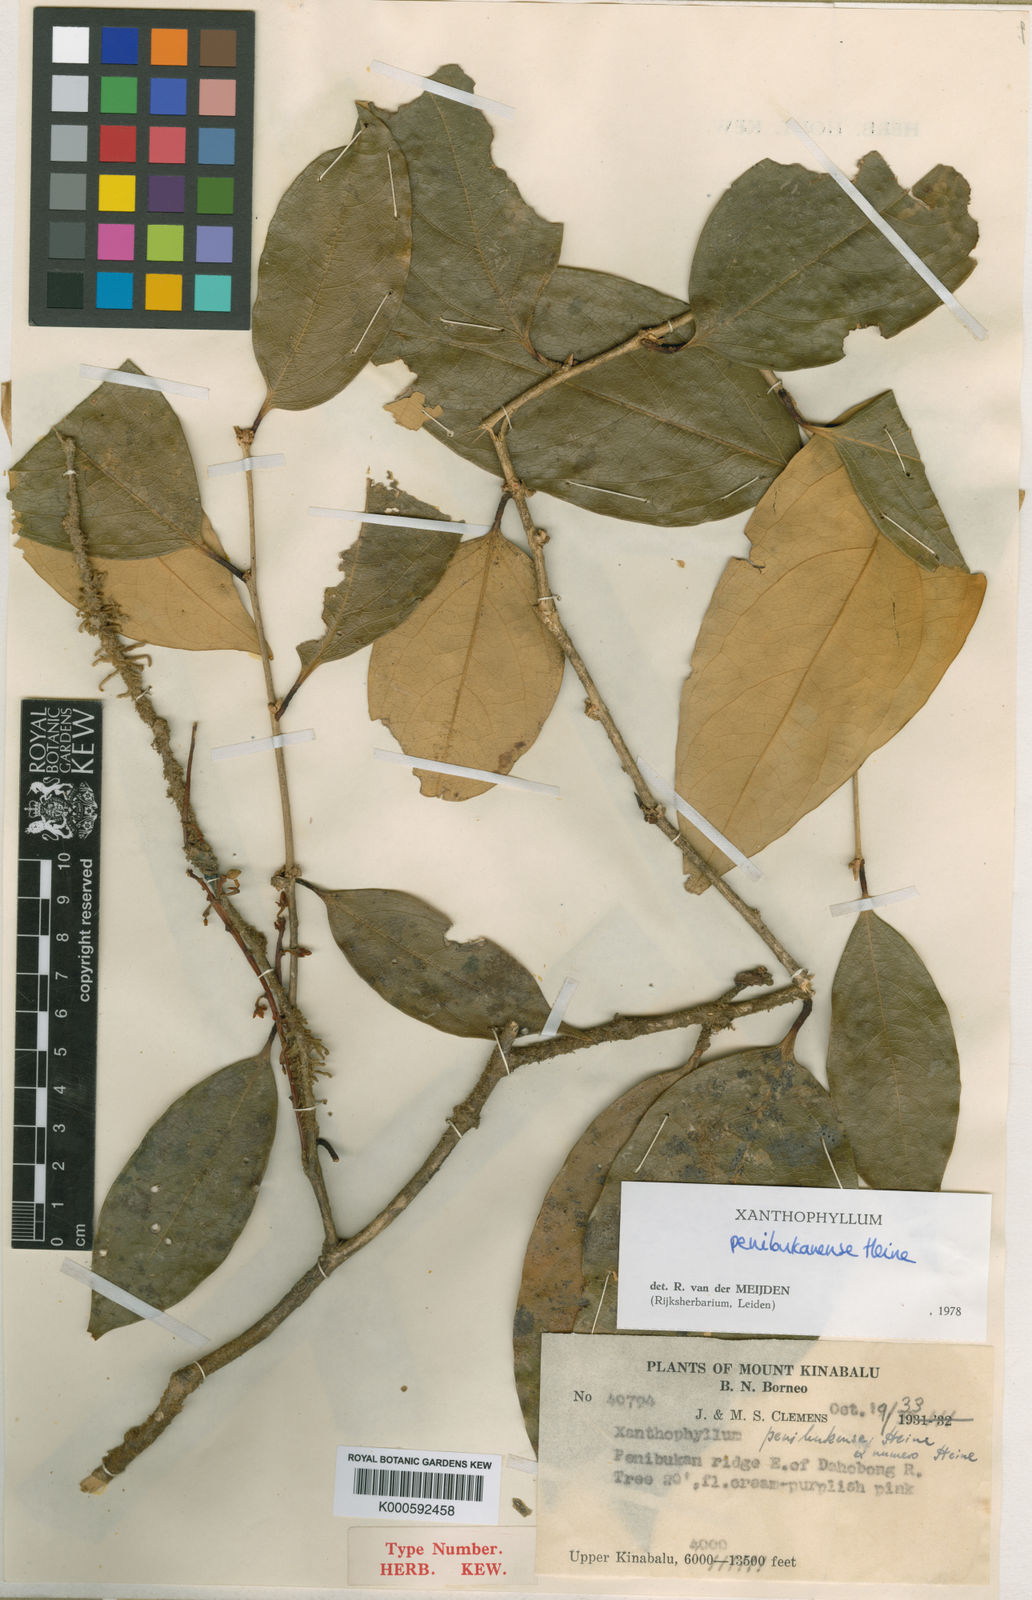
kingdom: Plantae
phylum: Tracheophyta
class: Magnoliopsida
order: Fabales
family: Polygalaceae
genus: Xanthophyllum
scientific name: Xanthophyllum penibukanense
